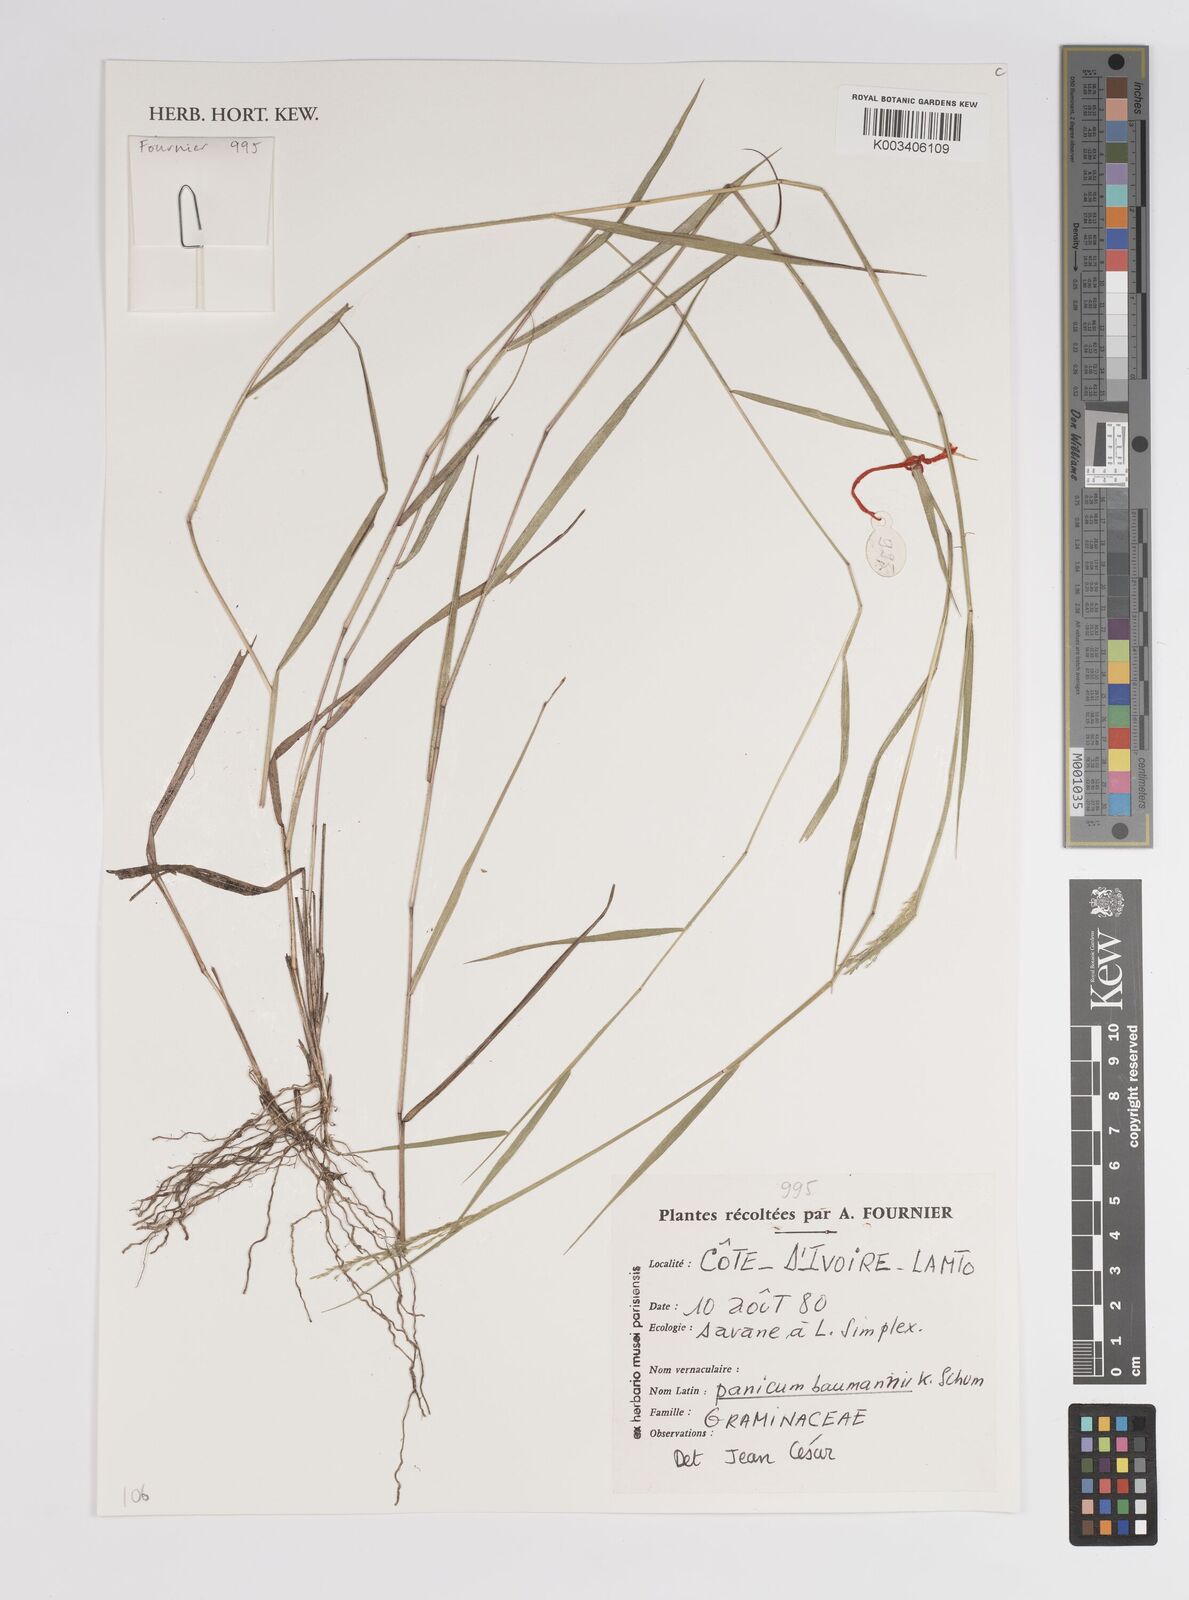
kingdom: Plantae
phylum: Tracheophyta
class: Liliopsida
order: Poales
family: Poaceae
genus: Trichanthecium
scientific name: Trichanthecium nervatum
